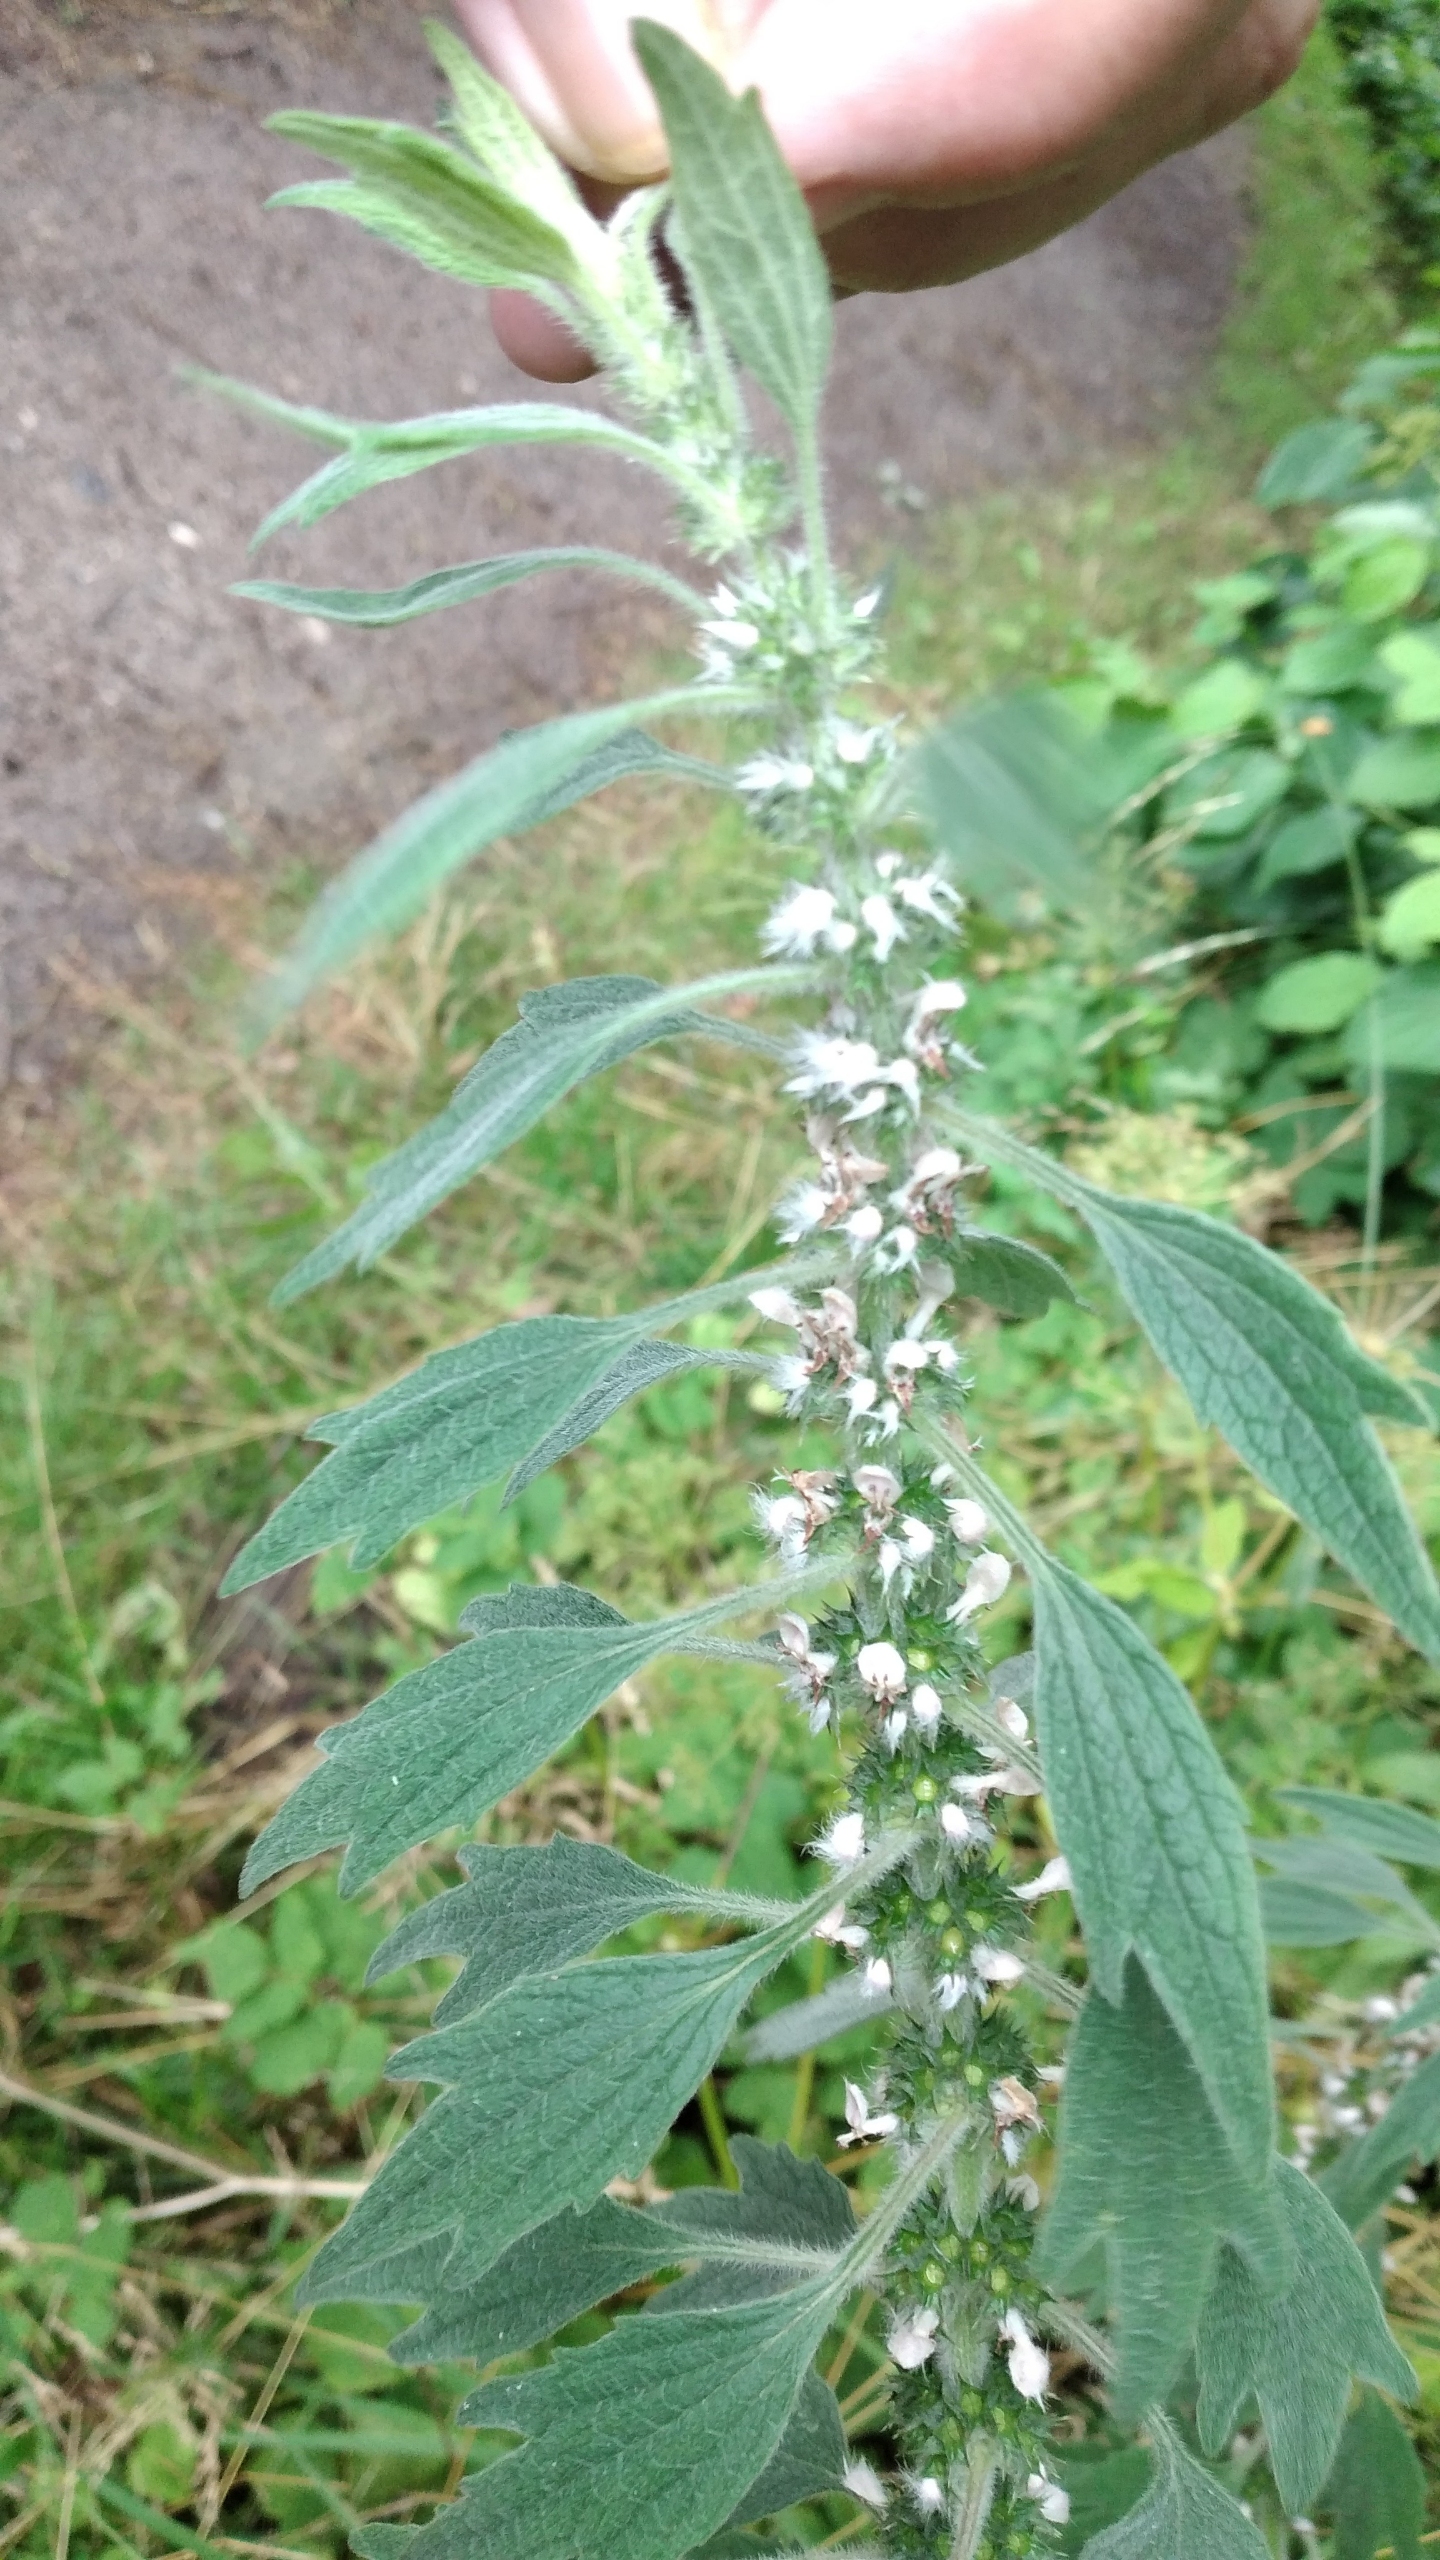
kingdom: Plantae
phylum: Tracheophyta
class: Magnoliopsida
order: Lamiales
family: Lamiaceae
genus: Leonurus
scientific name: Leonurus cardiaca
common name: Hjertespand
